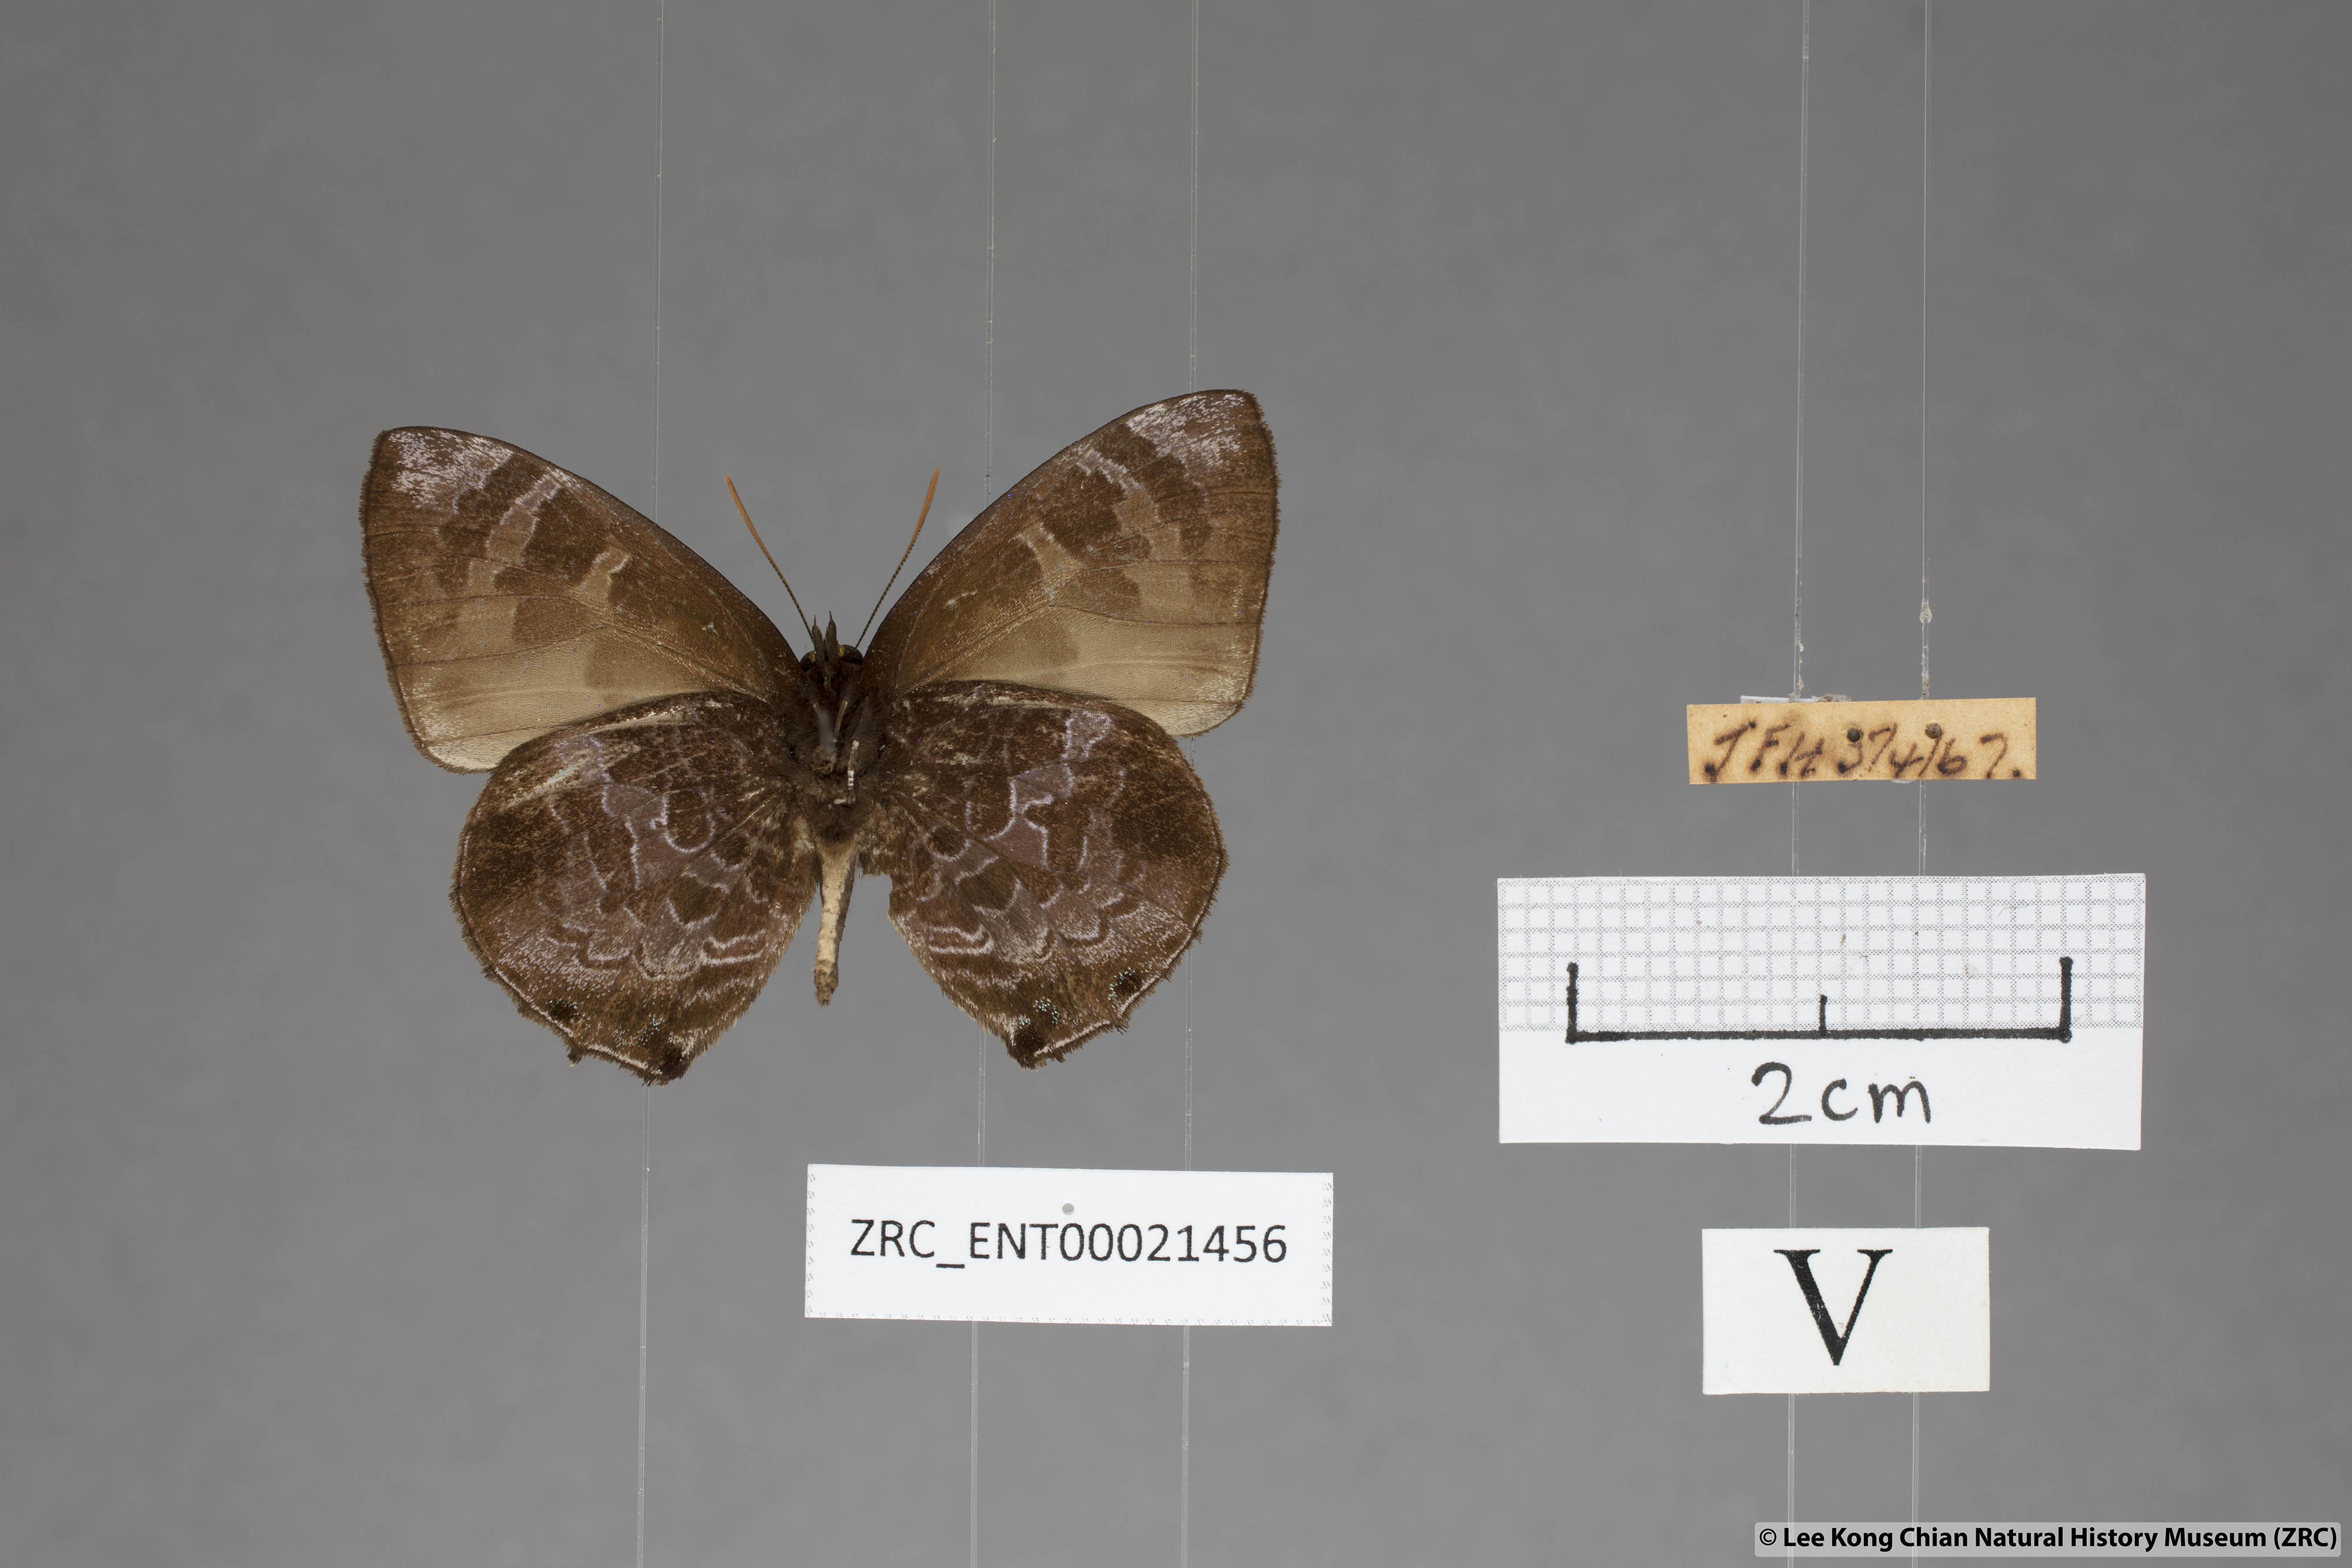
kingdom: Animalia
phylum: Arthropoda
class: Insecta
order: Lepidoptera
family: Lycaenidae
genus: Flos
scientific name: Flos
